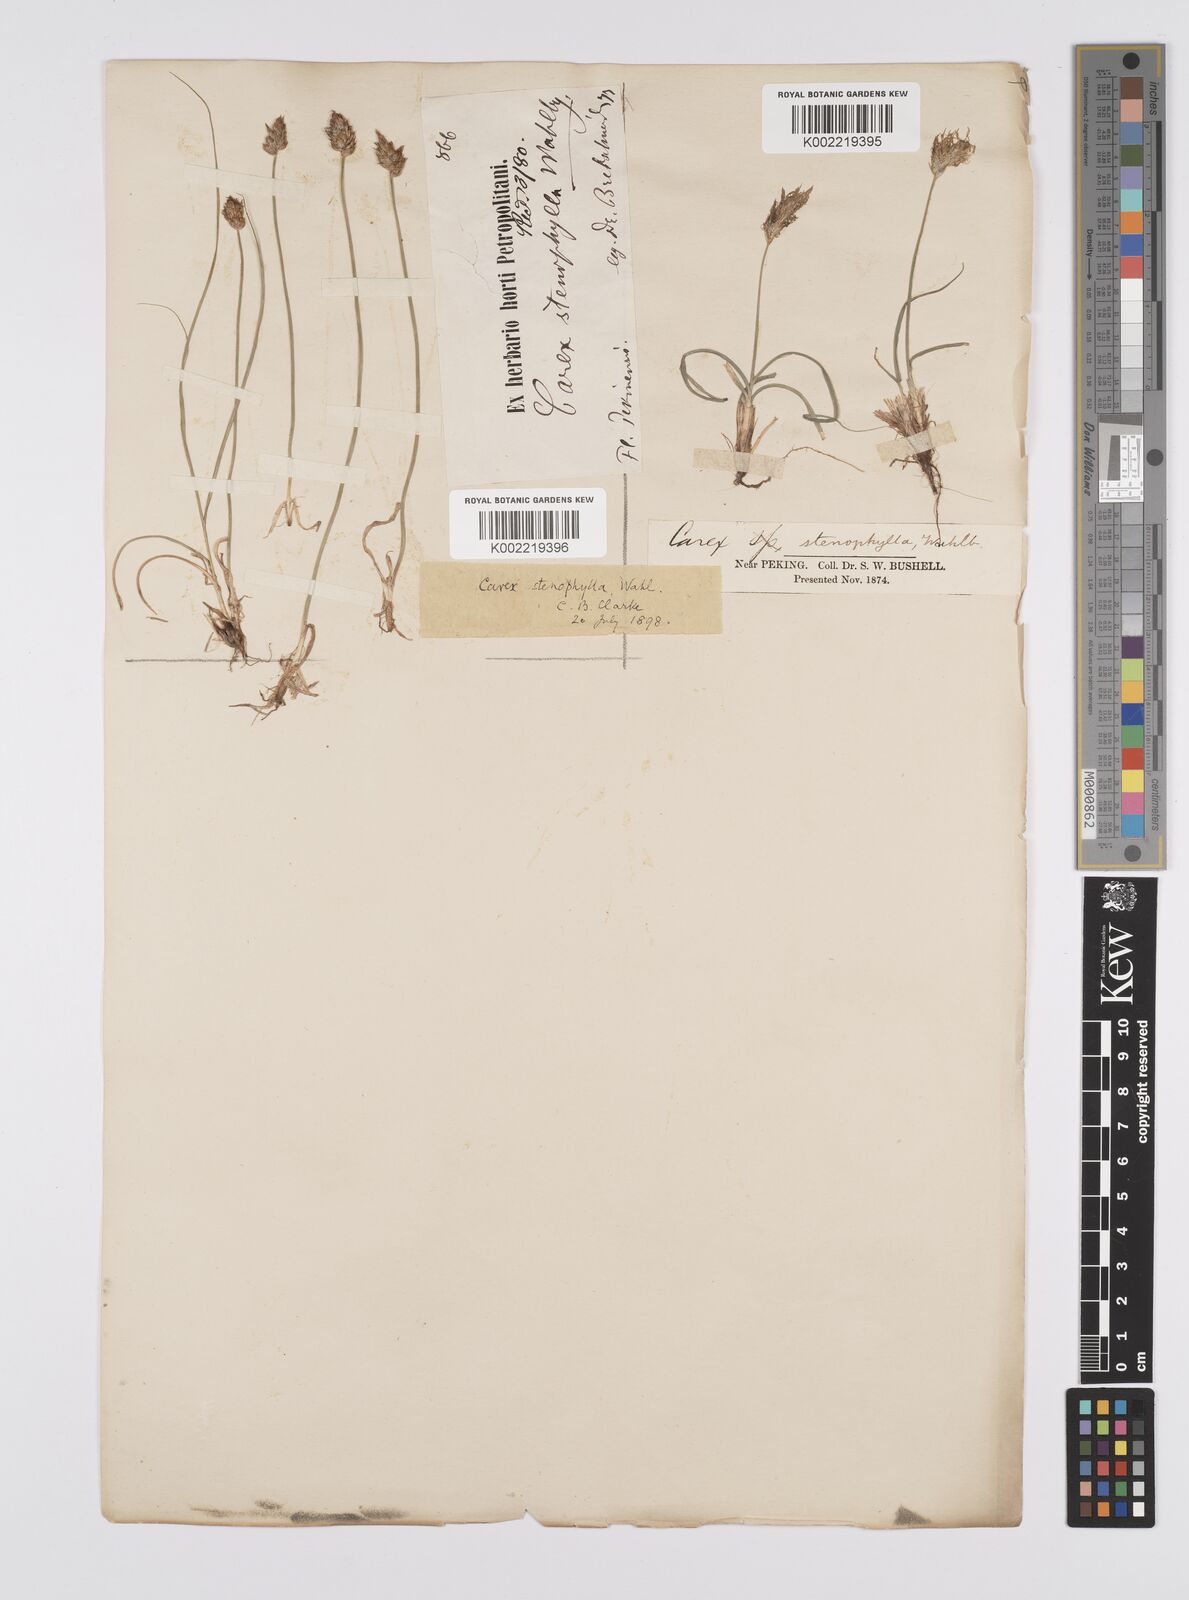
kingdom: Plantae
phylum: Tracheophyta
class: Liliopsida
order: Poales
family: Cyperaceae
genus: Carex
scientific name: Carex stenophylla
